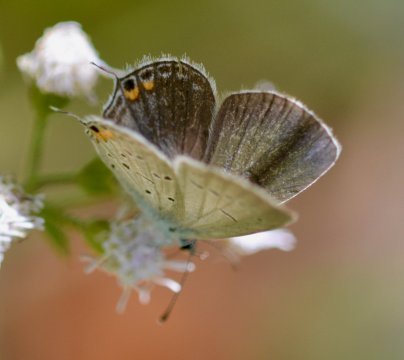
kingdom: Animalia
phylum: Arthropoda
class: Insecta
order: Lepidoptera
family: Lycaenidae
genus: Elkalyce
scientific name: Elkalyce comyntas
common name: Eastern Tailed-Blue
